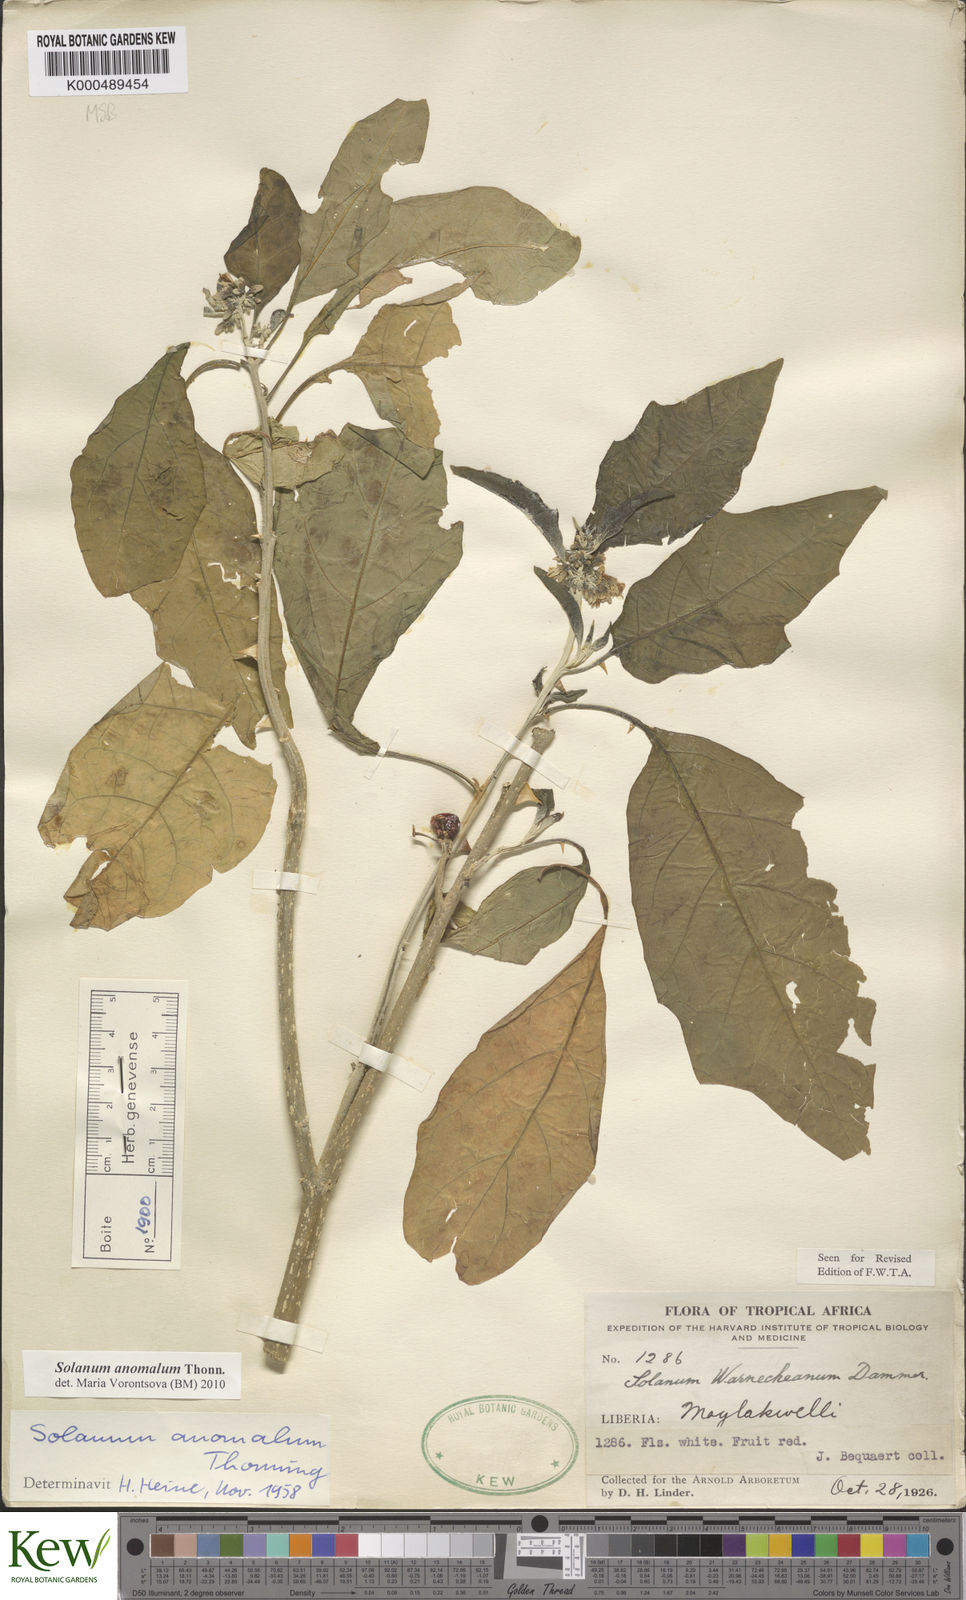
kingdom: Plantae
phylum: Tracheophyta
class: Magnoliopsida
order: Solanales
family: Solanaceae
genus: Solanum
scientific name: Solanum anomalum
